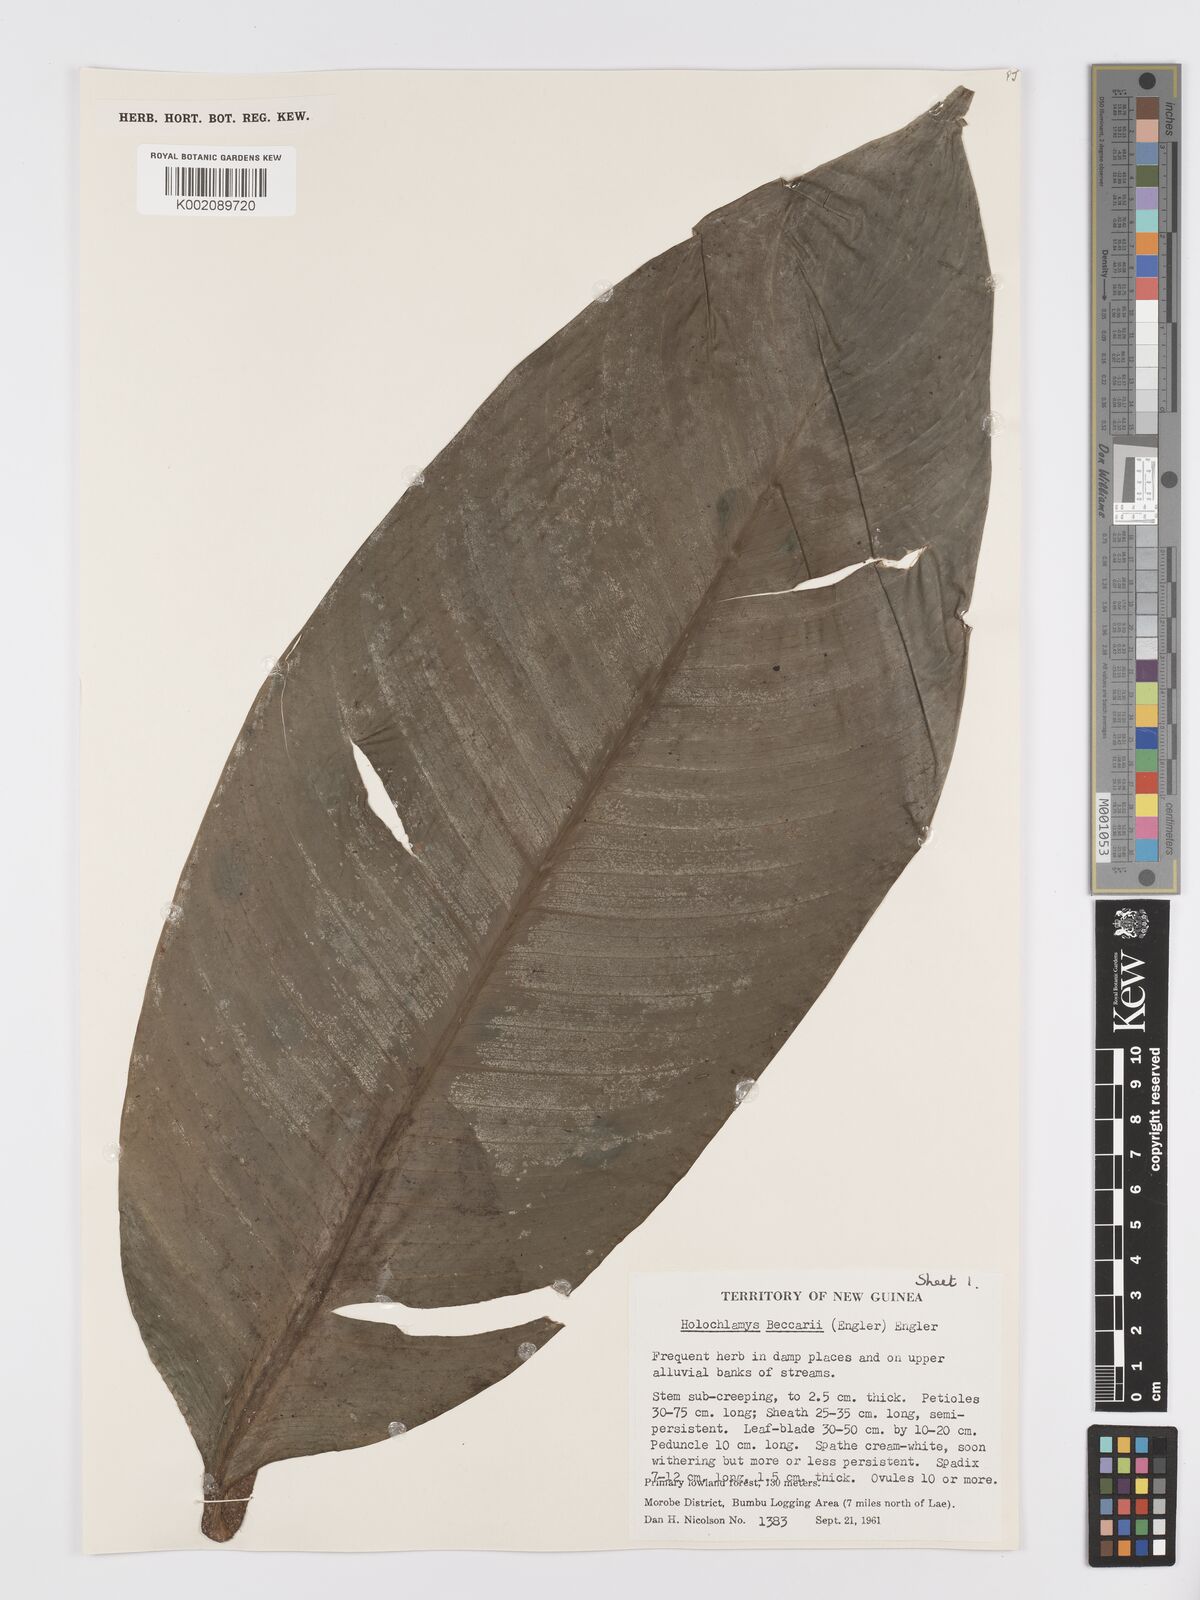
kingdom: Plantae
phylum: Tracheophyta
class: Liliopsida
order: Alismatales
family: Araceae
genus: Holochlamys
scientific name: Holochlamys beccarii
